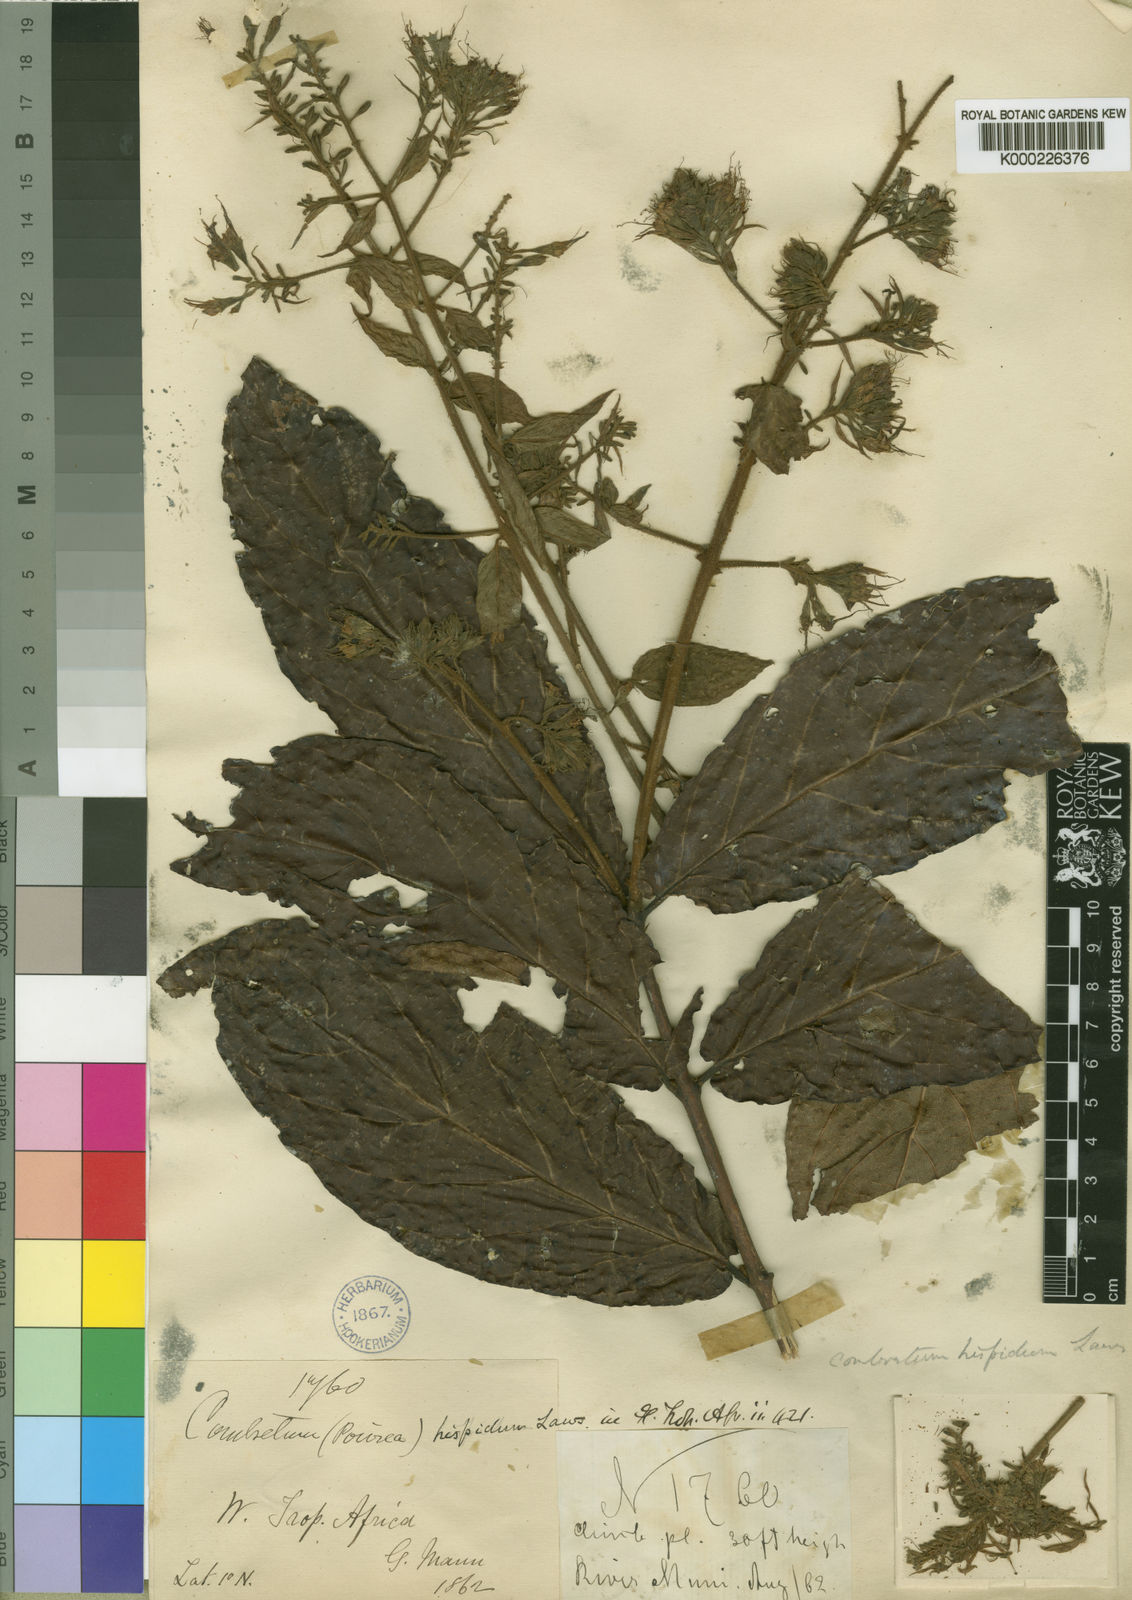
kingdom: Plantae
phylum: Tracheophyta
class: Magnoliopsida
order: Myrtales
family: Combretaceae
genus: Combretum
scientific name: Combretum comosum
